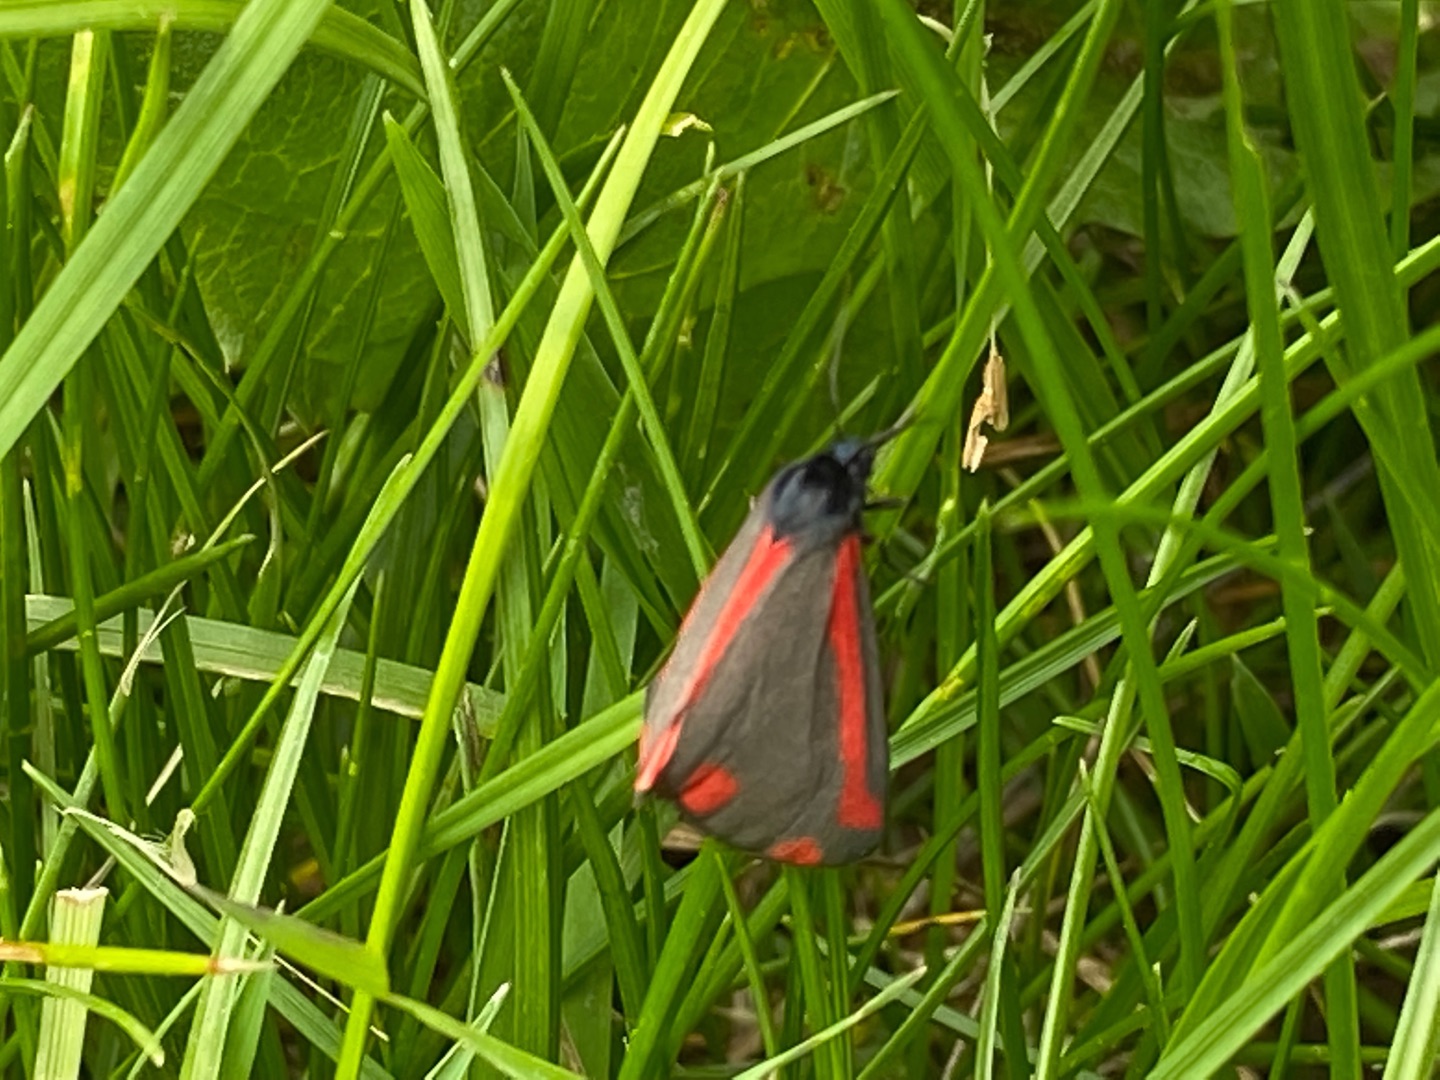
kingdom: Animalia
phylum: Arthropoda
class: Insecta
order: Lepidoptera
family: Erebidae
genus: Tyria
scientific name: Tyria jacobaeae
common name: Blodplet
